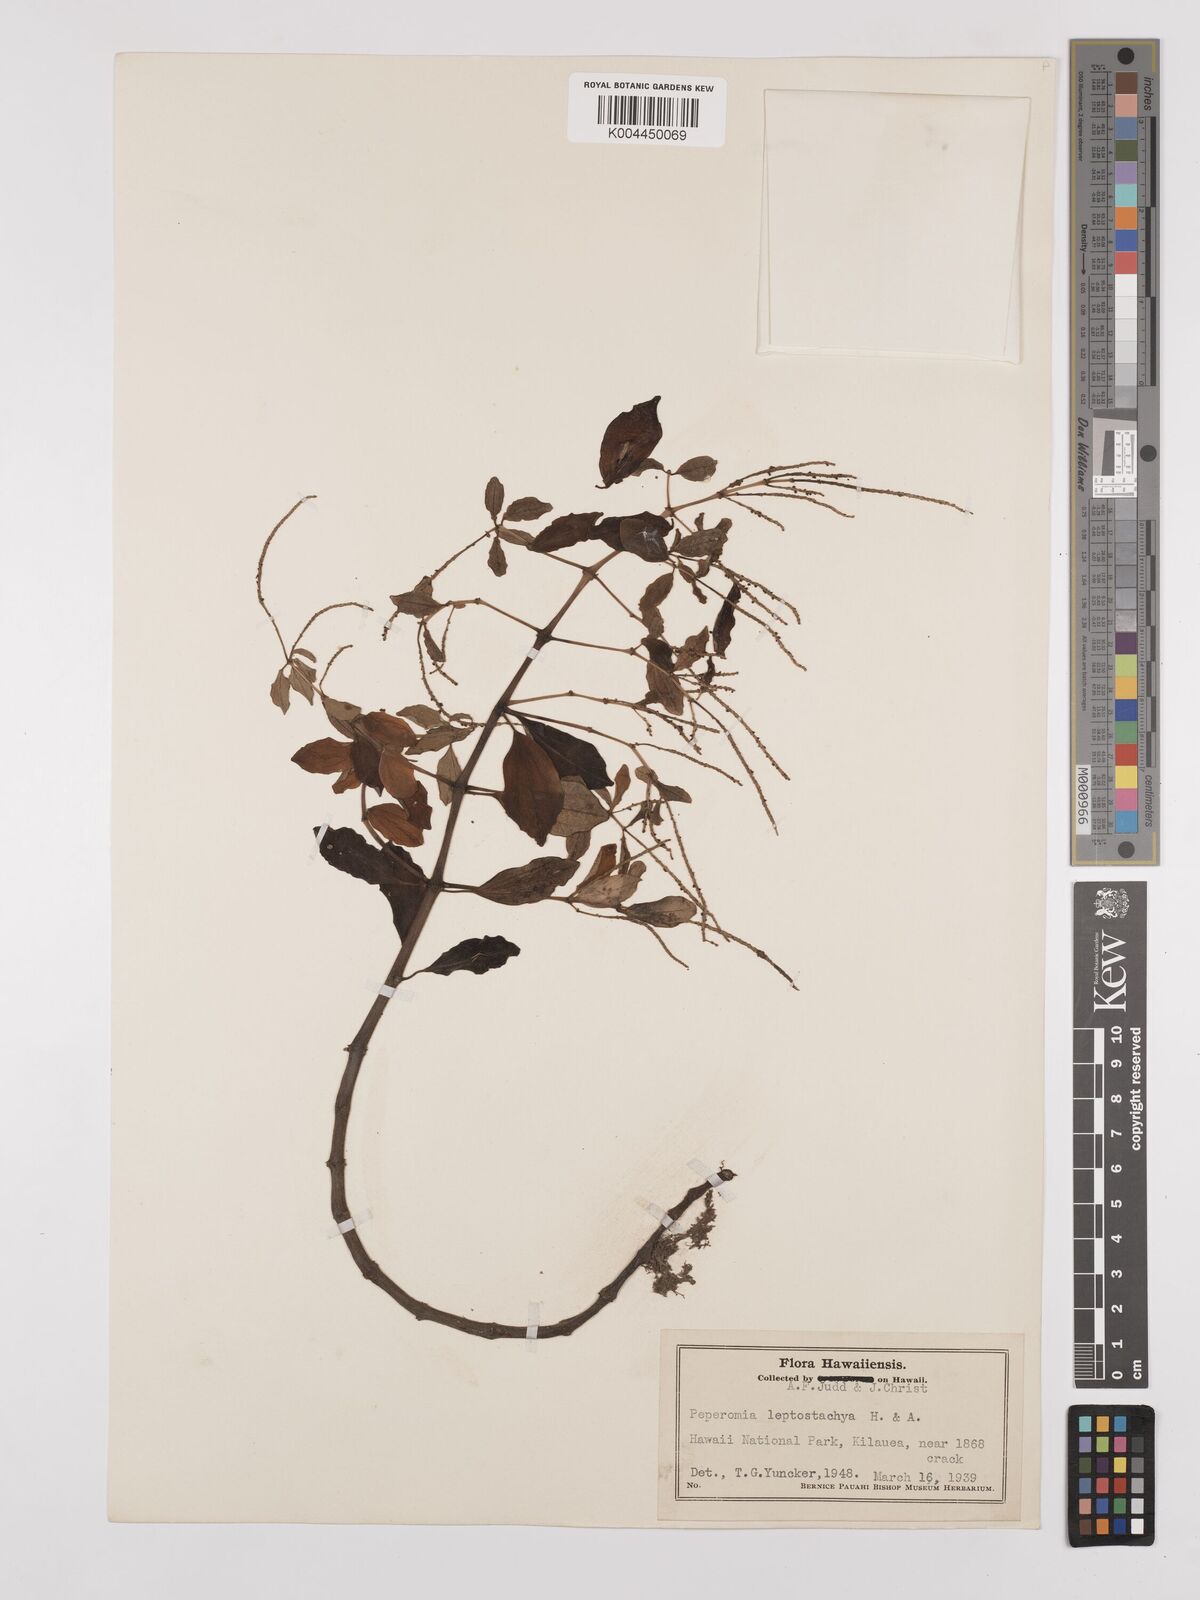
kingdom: Plantae
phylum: Tracheophyta
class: Magnoliopsida
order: Piperales
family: Piperaceae
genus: Peperomia
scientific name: Peperomia leptostachya
